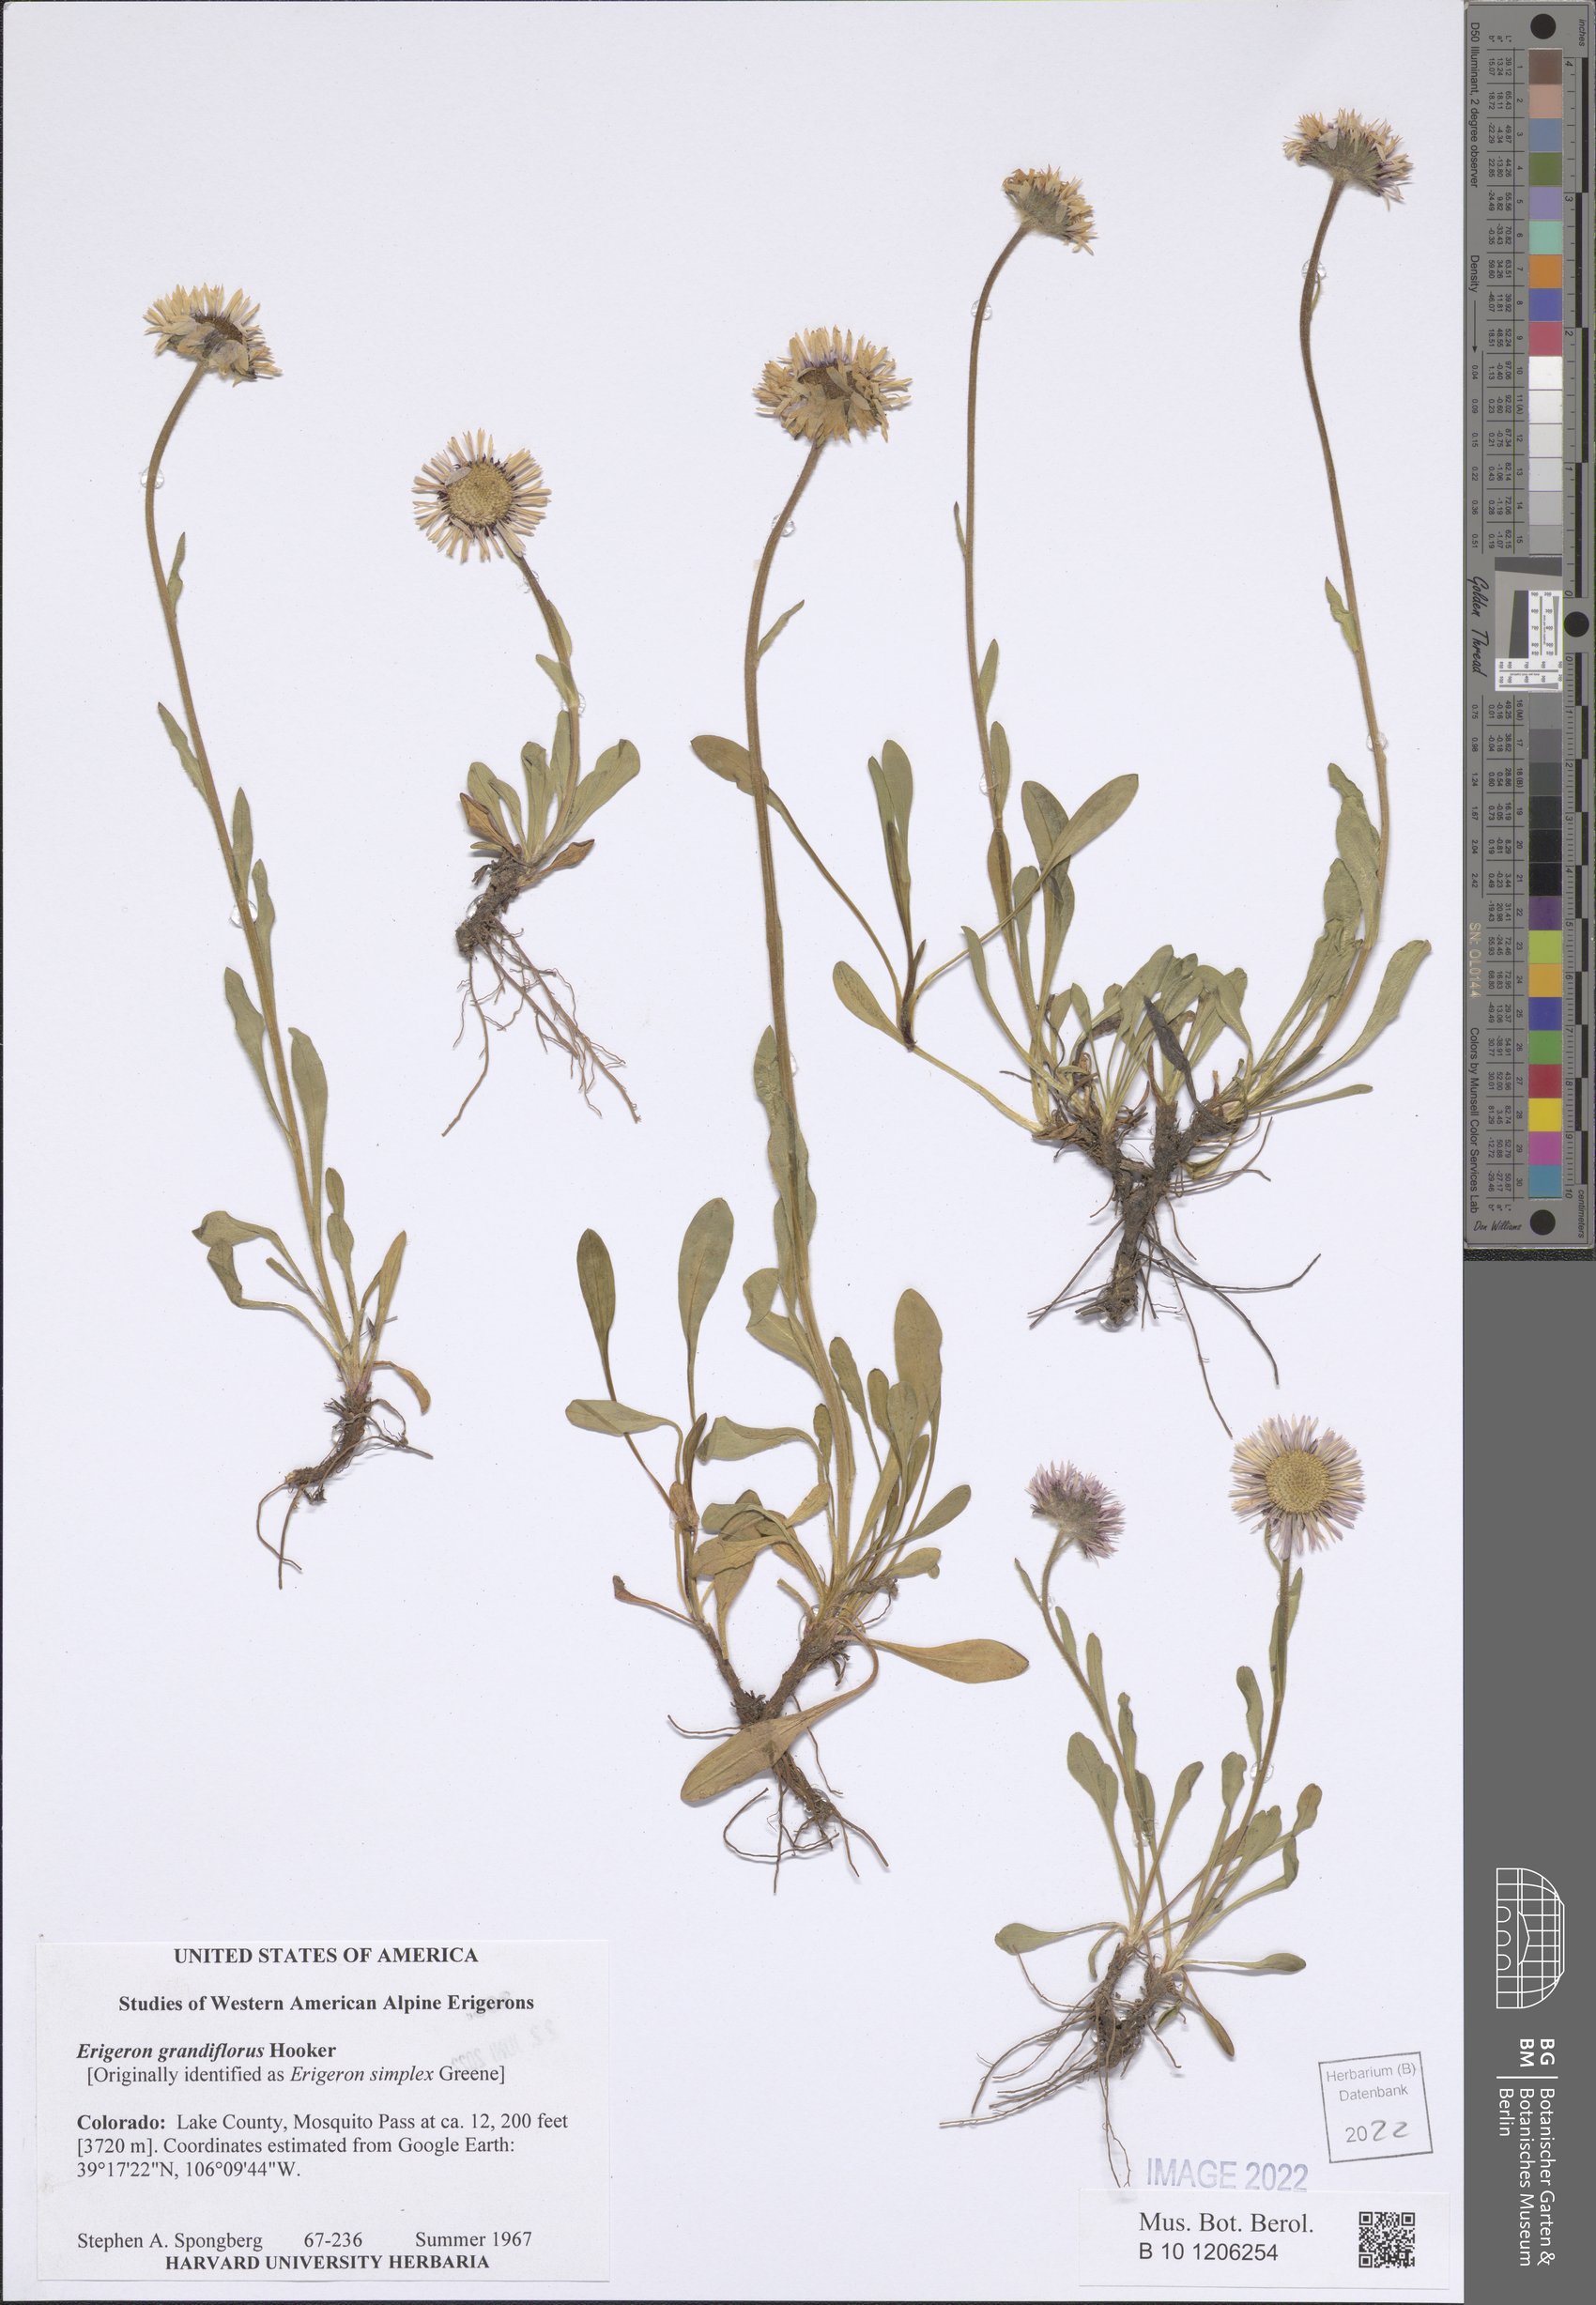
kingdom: Plantae
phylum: Tracheophyta
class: Magnoliopsida
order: Asterales
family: Asteraceae
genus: Erigeron
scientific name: Erigeron grandiflorus
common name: Rocky mountain alpine fleabane
